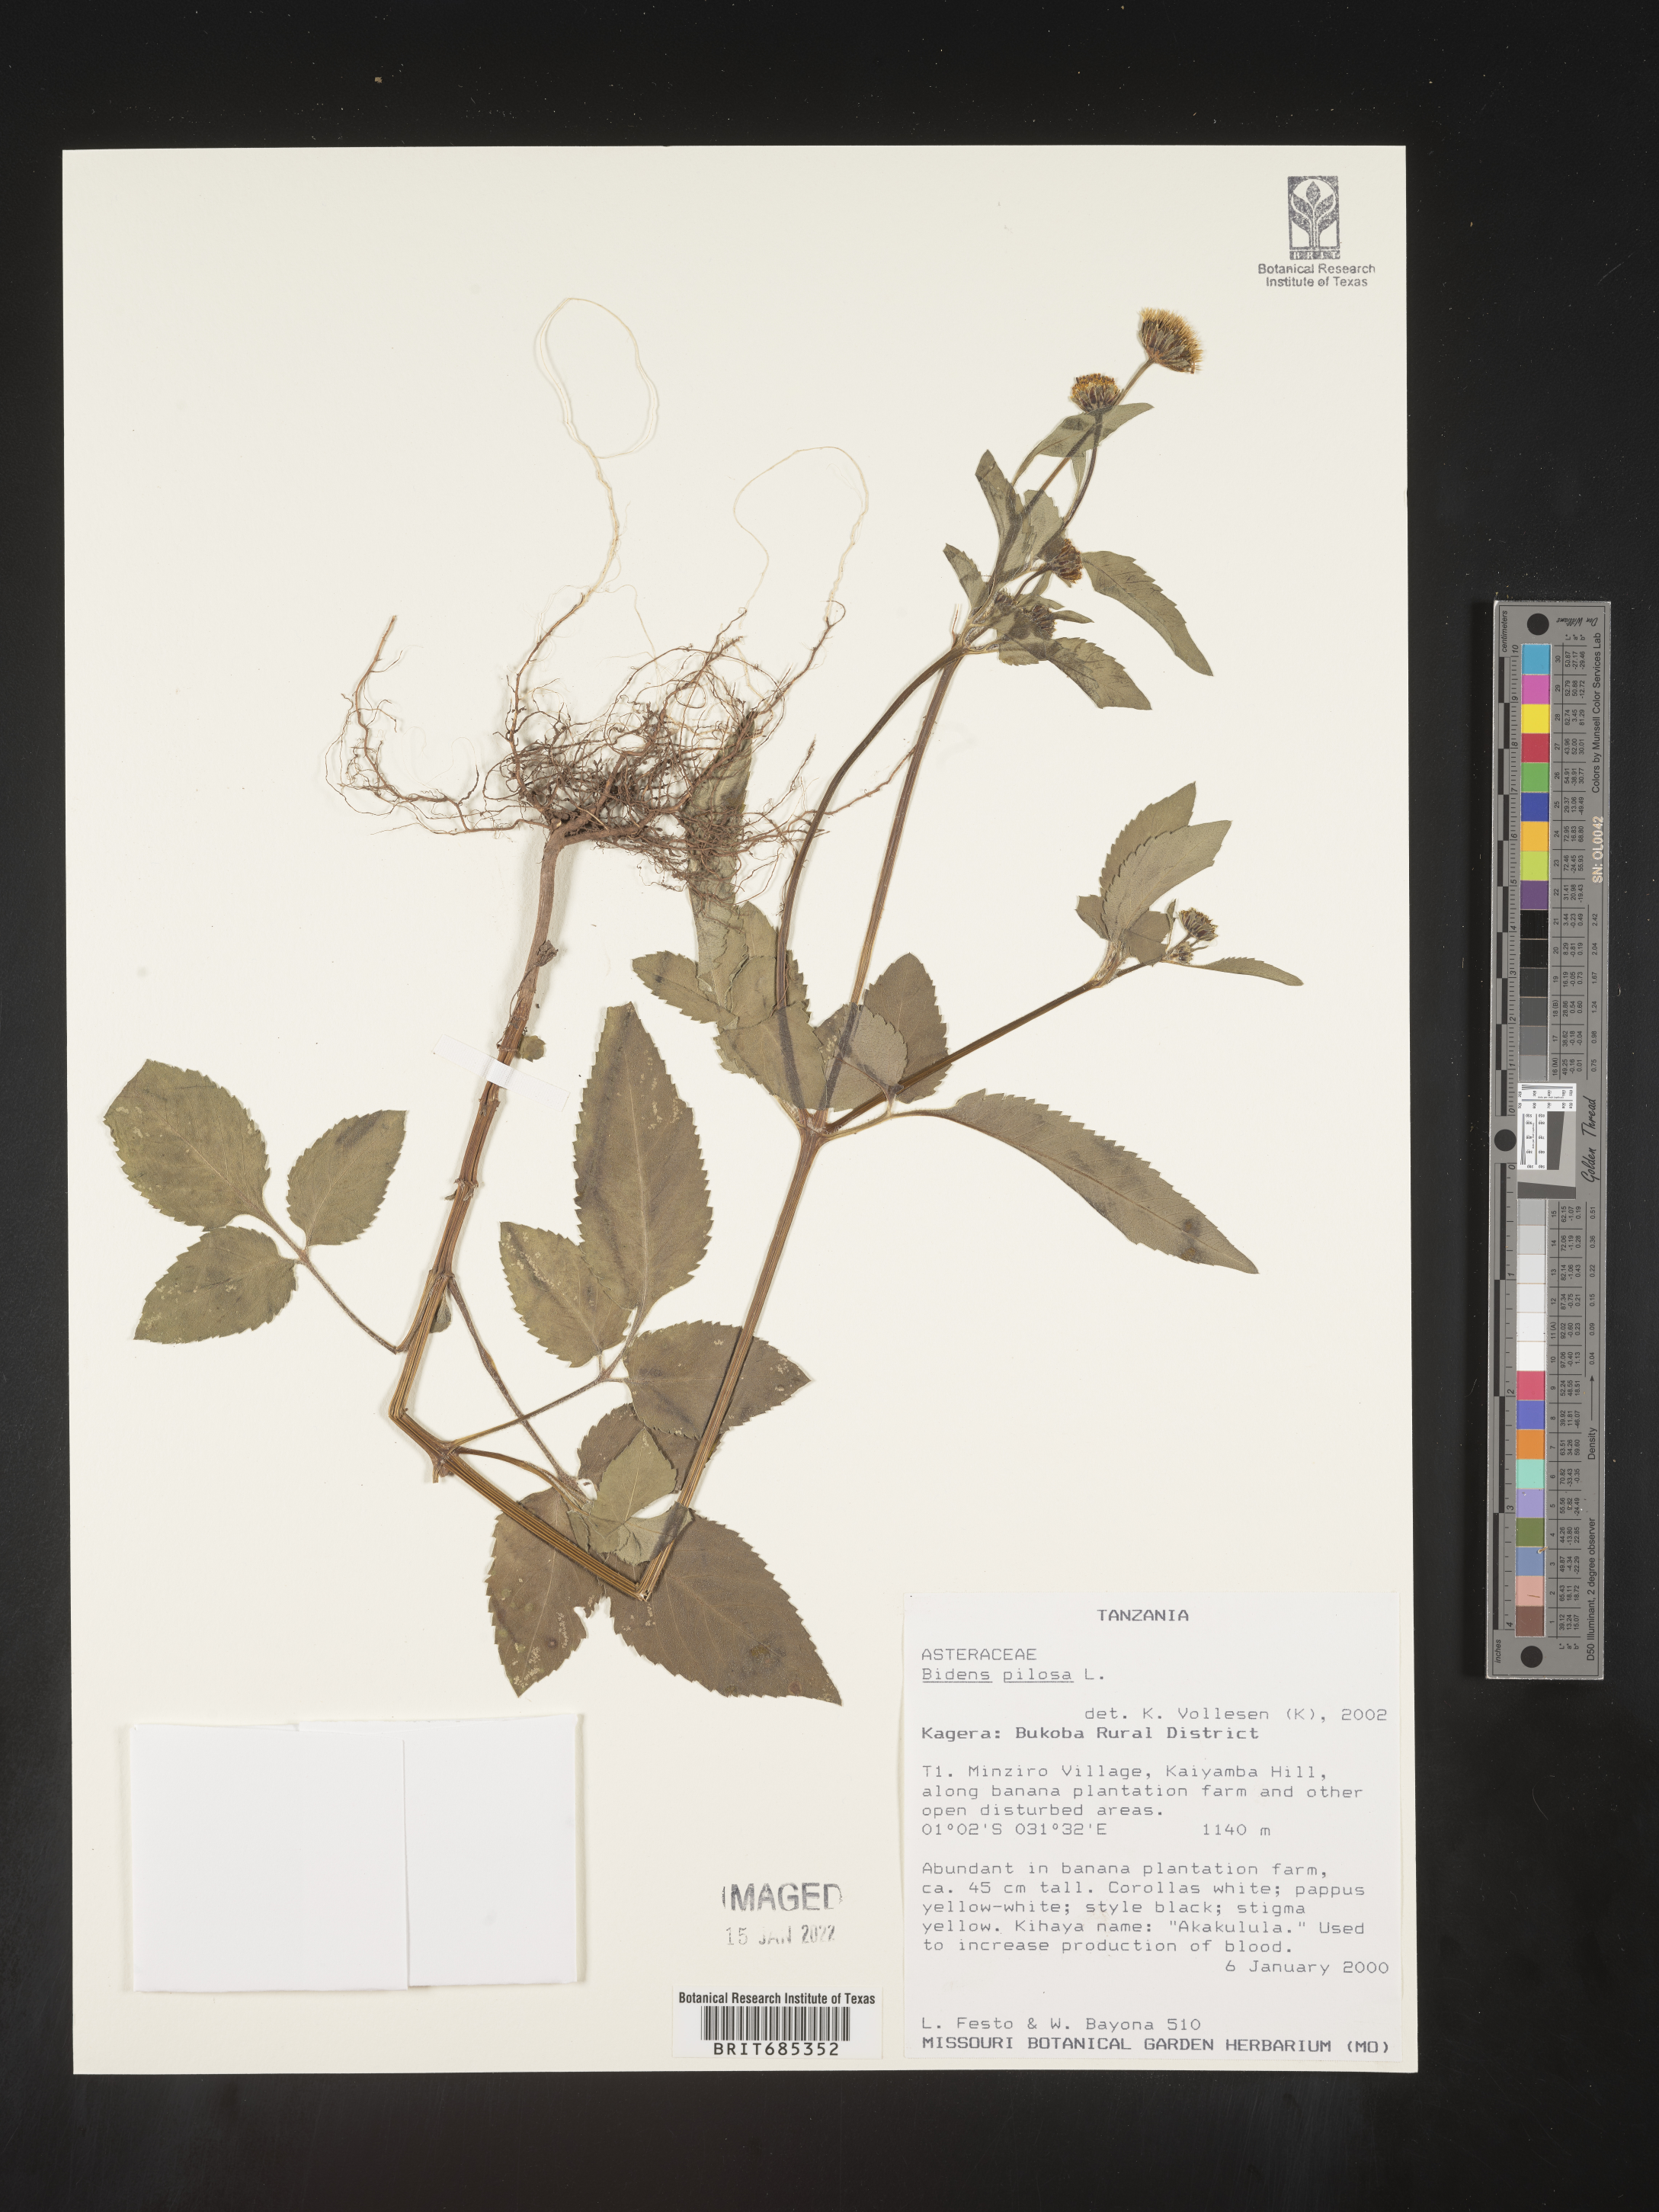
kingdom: Plantae
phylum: Tracheophyta
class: Magnoliopsida
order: Asterales
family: Asteraceae
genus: Bidens
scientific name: Bidens
